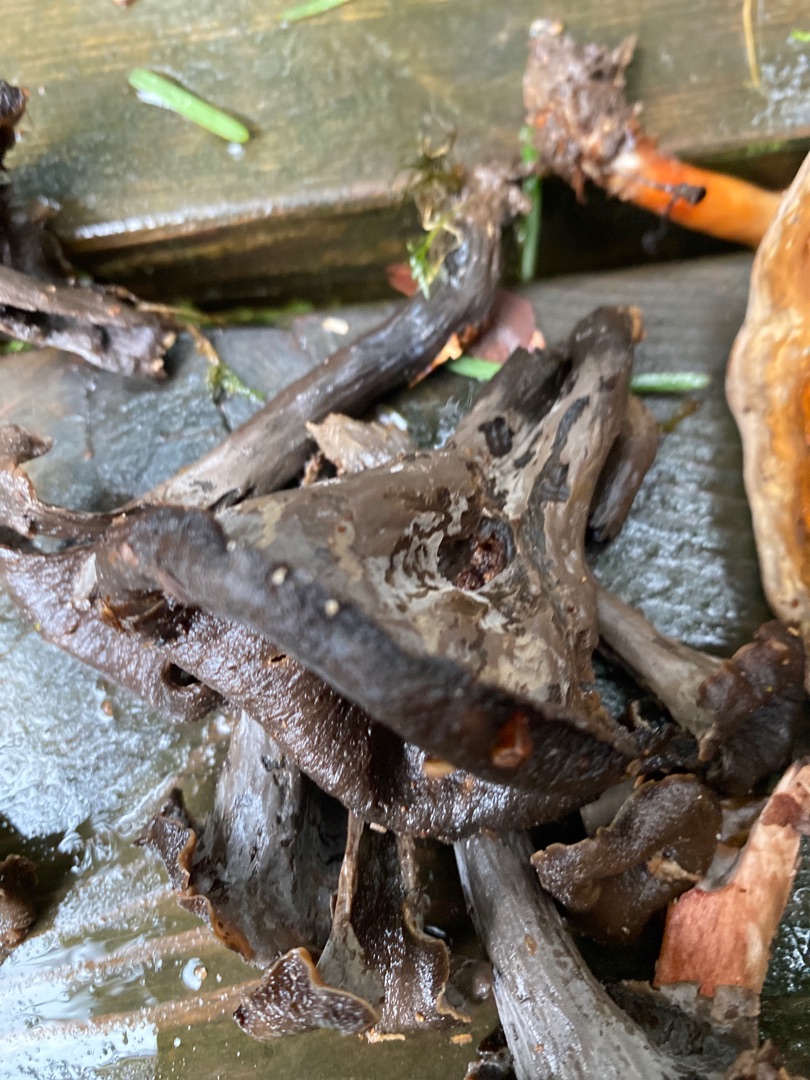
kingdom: Fungi
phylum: Basidiomycota
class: Agaricomycetes
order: Cantharellales
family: Hydnaceae
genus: Craterellus
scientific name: Craterellus cornucopioides
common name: Trompetsvamp
